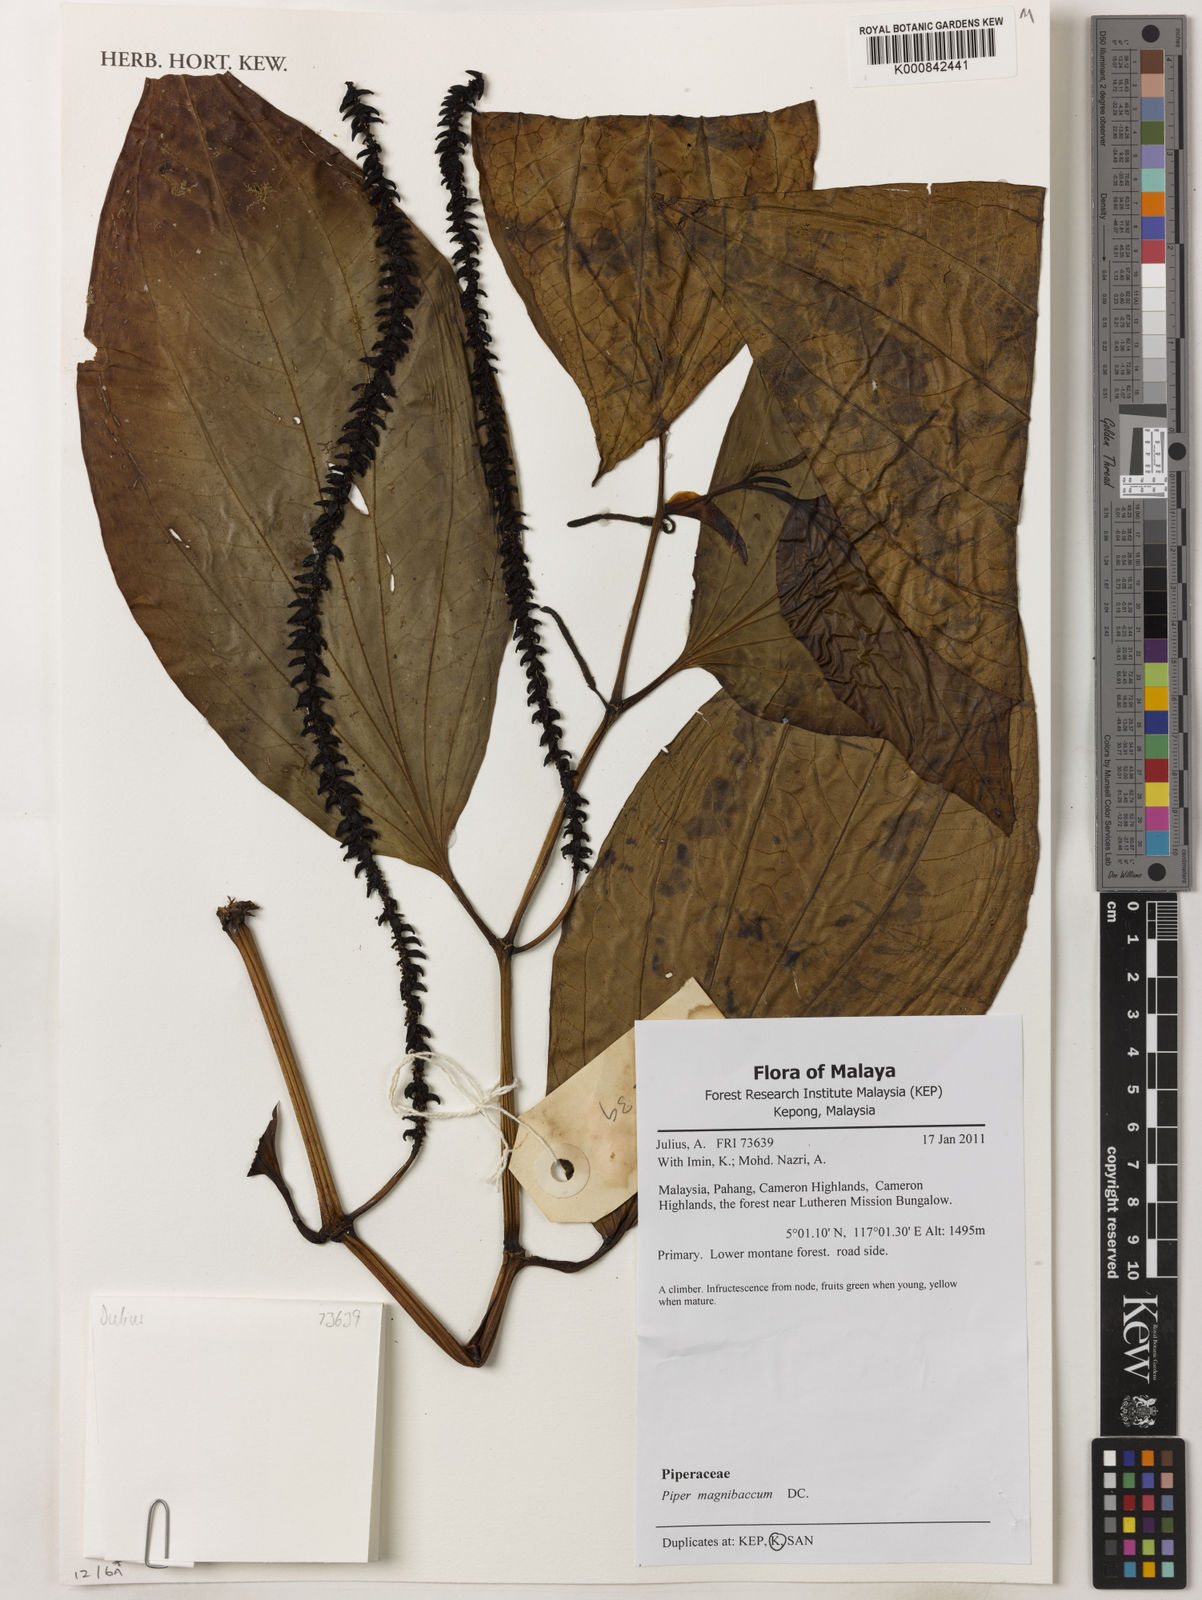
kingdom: Plantae
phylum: Tracheophyta
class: Magnoliopsida
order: Piperales
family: Piperaceae
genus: Piper
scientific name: Piper quinqueangulatum
